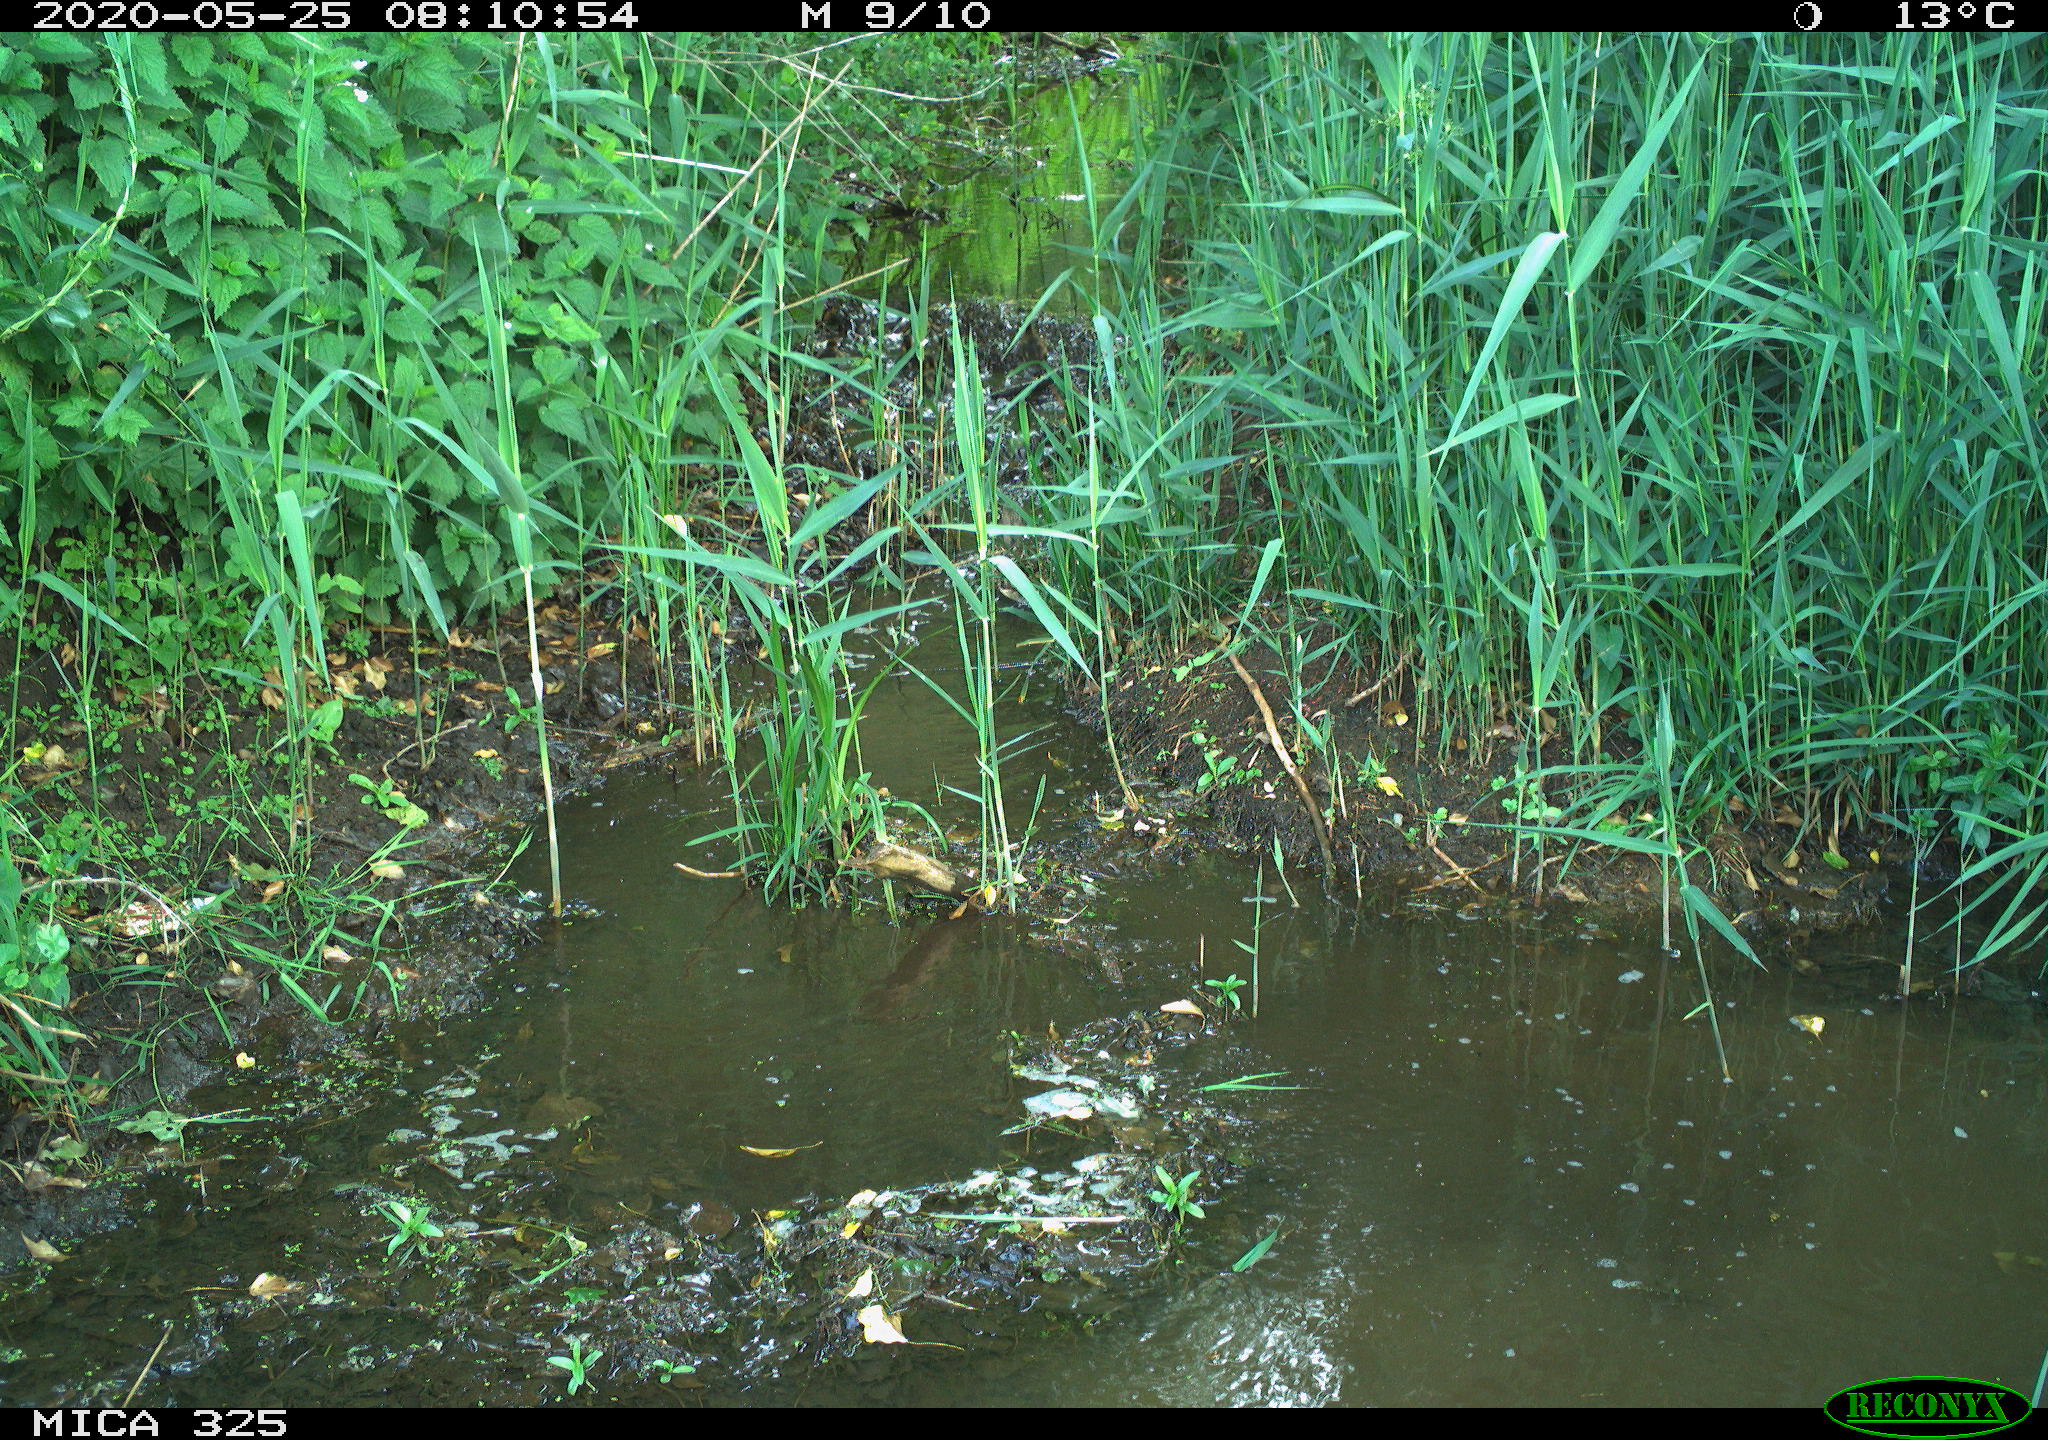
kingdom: Animalia
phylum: Chordata
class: Aves
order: Anseriformes
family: Anatidae
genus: Anas
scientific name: Anas platyrhynchos
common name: Mallard
